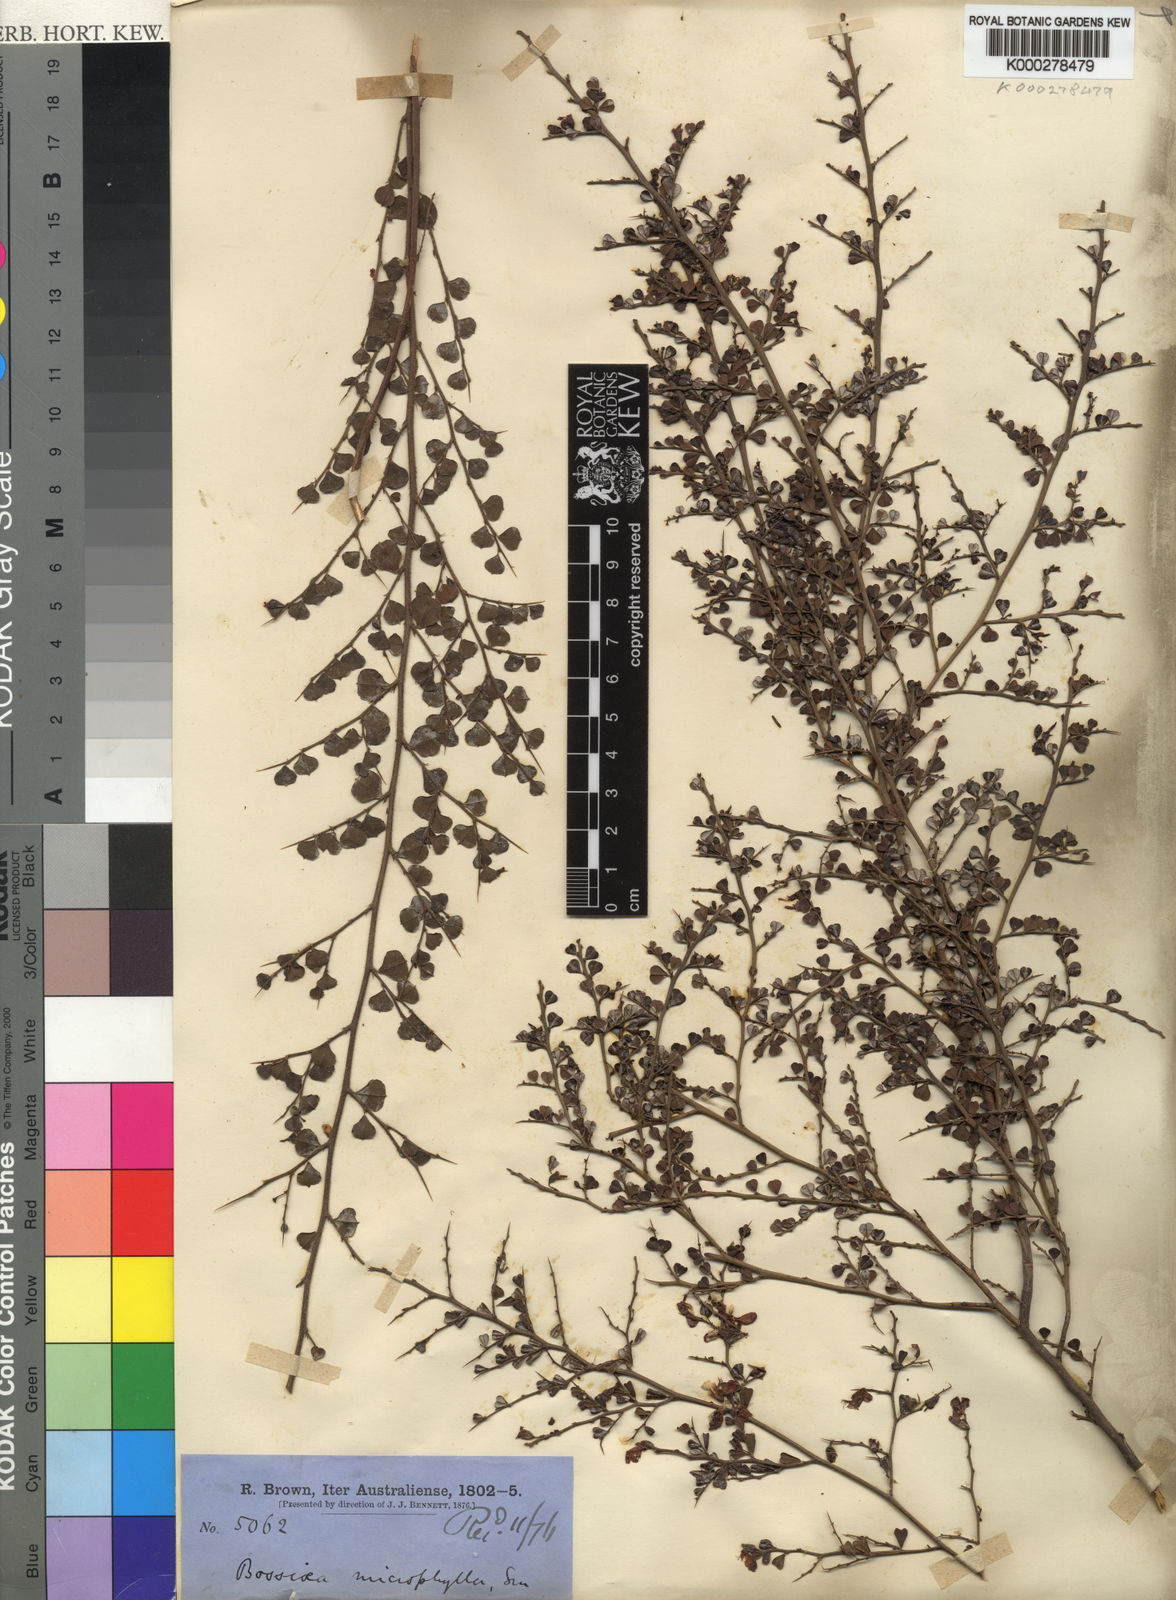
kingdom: Plantae
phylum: Tracheophyta
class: Magnoliopsida
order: Fabales
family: Fabaceae
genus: Bossiaea
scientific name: Bossiaea obcordata
